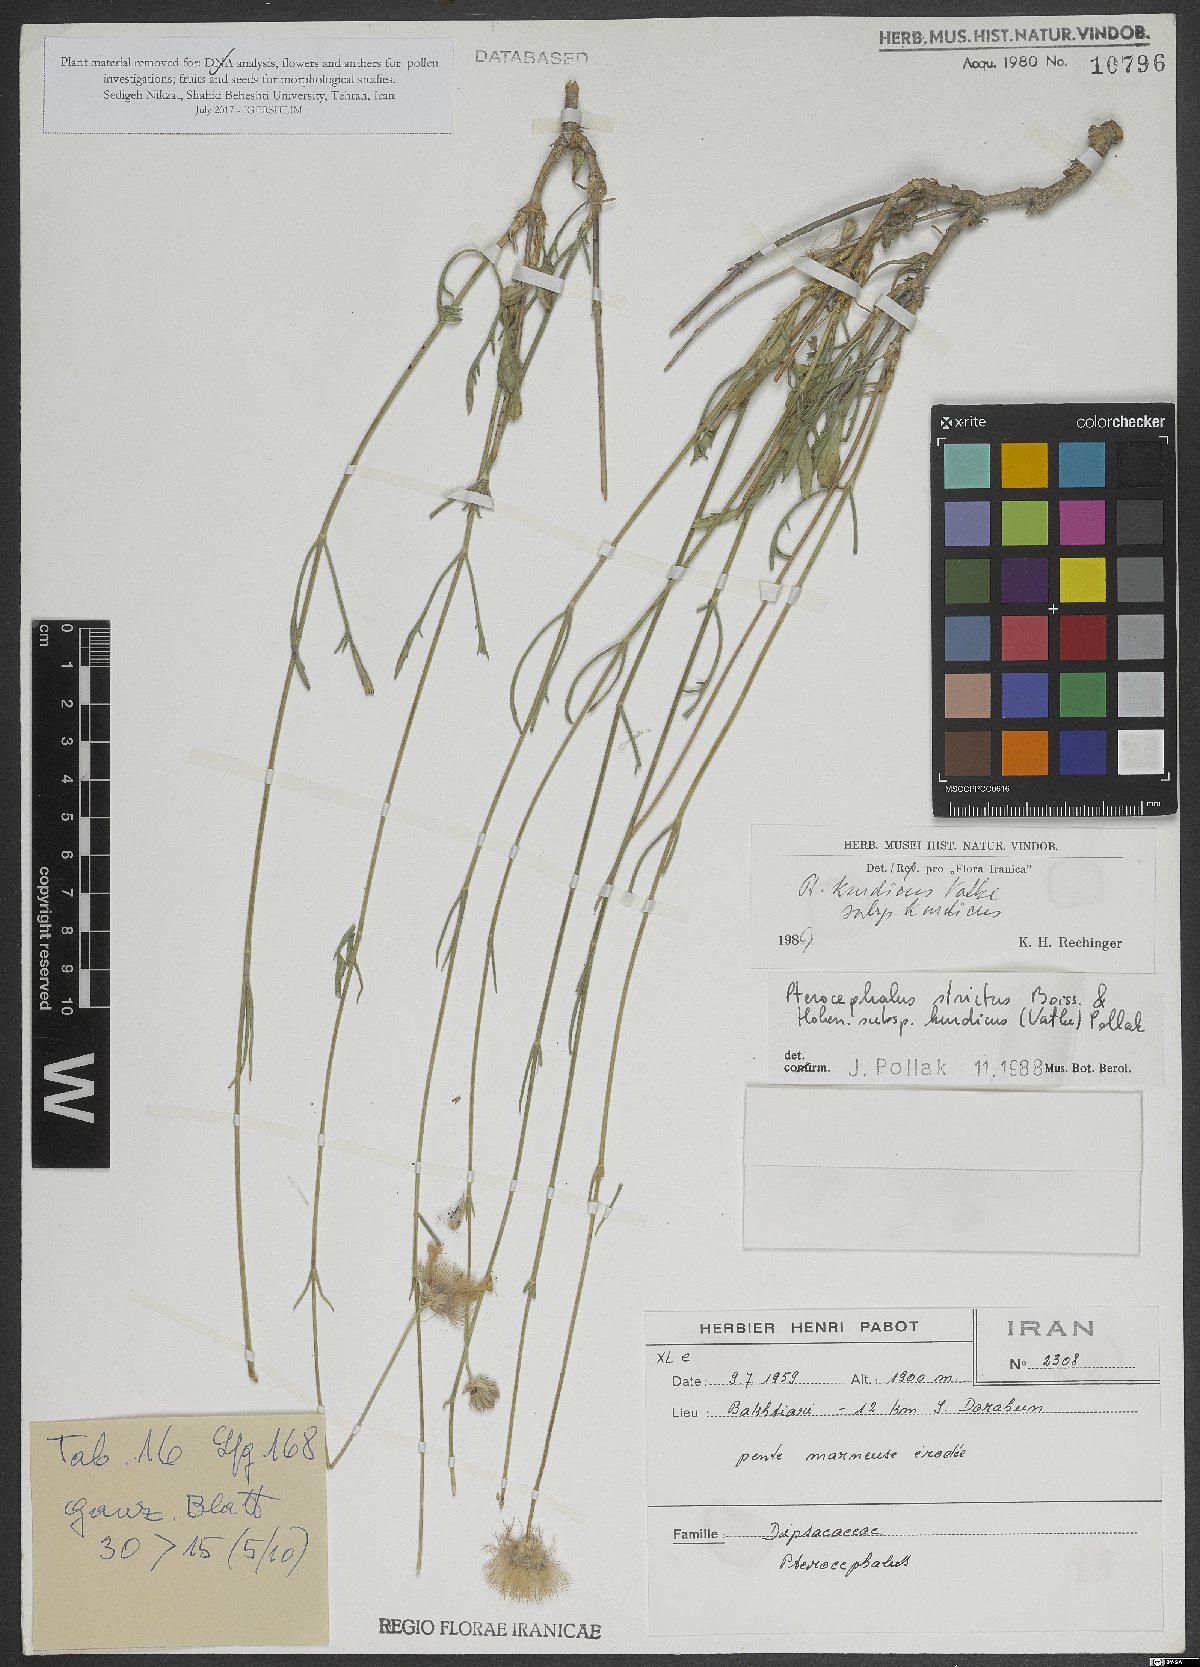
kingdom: Plantae
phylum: Tracheophyta
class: Magnoliopsida
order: Dipsacales
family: Caprifoliaceae
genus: Pterocephalus
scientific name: Pterocephalus kurdicus
